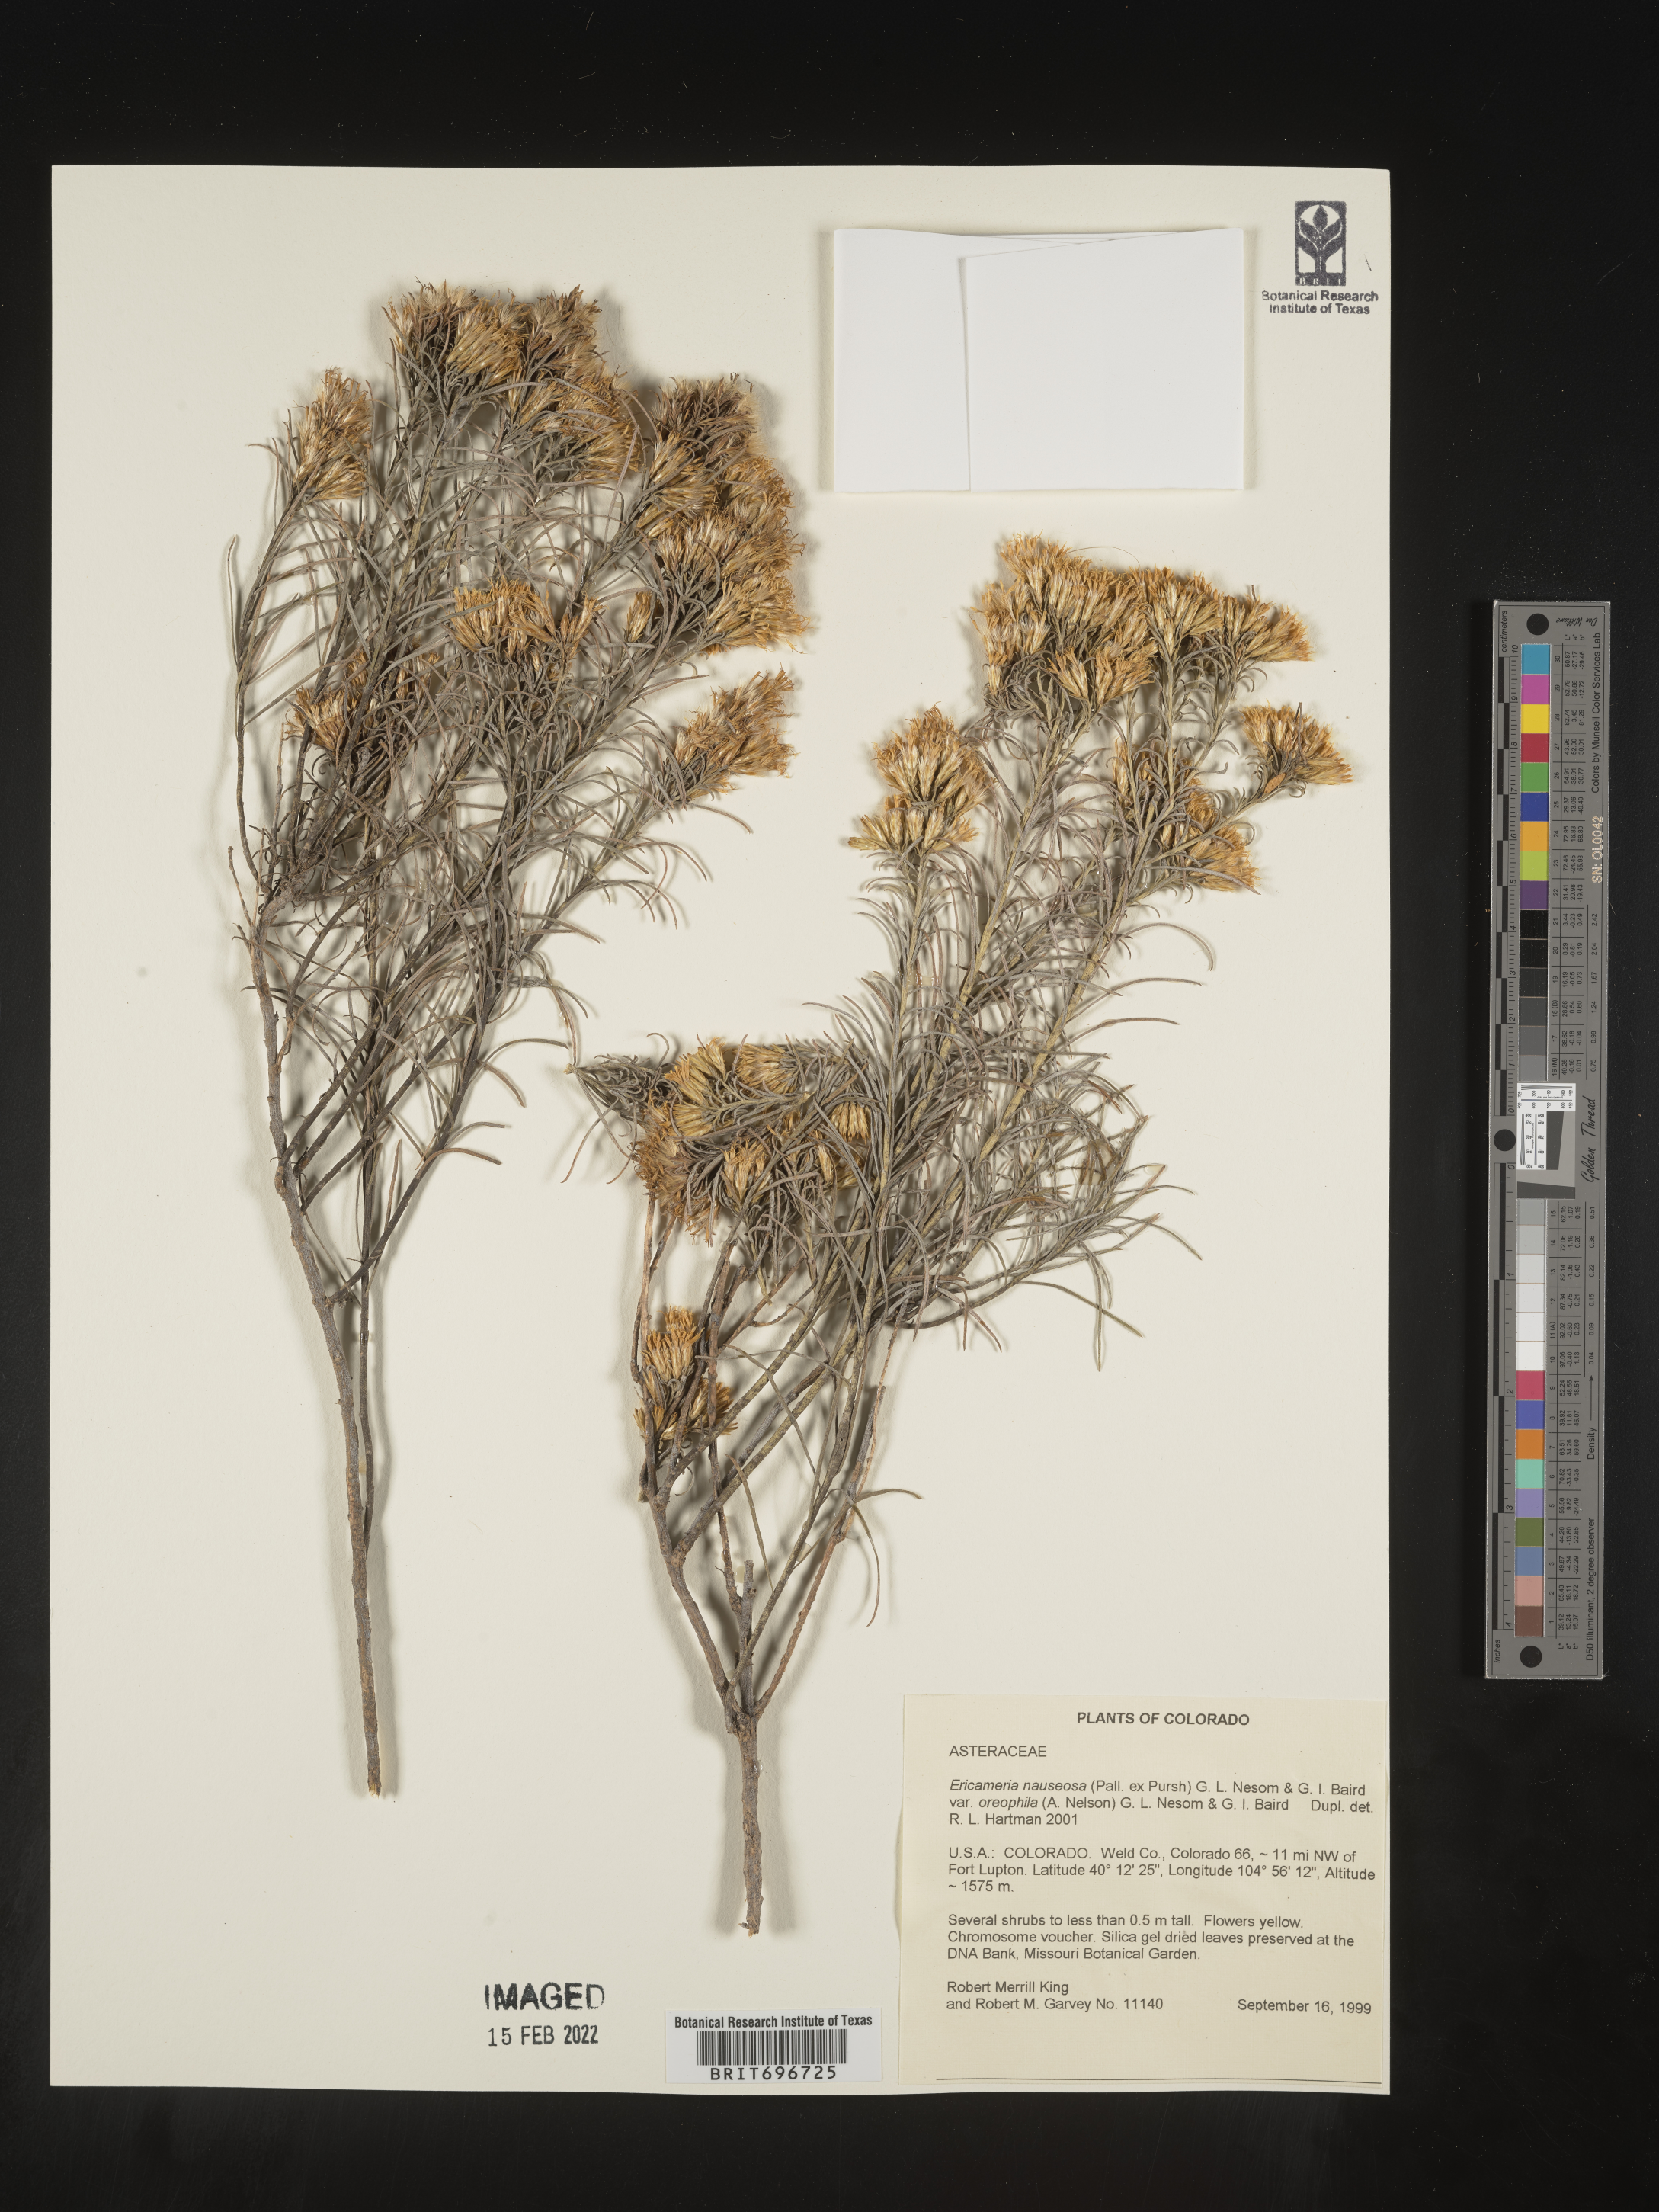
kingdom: Plantae
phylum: Tracheophyta
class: Magnoliopsida
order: Asterales
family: Asteraceae
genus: Ericameria
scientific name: Ericameria nauseosa
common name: Rubber rabbitbrush
